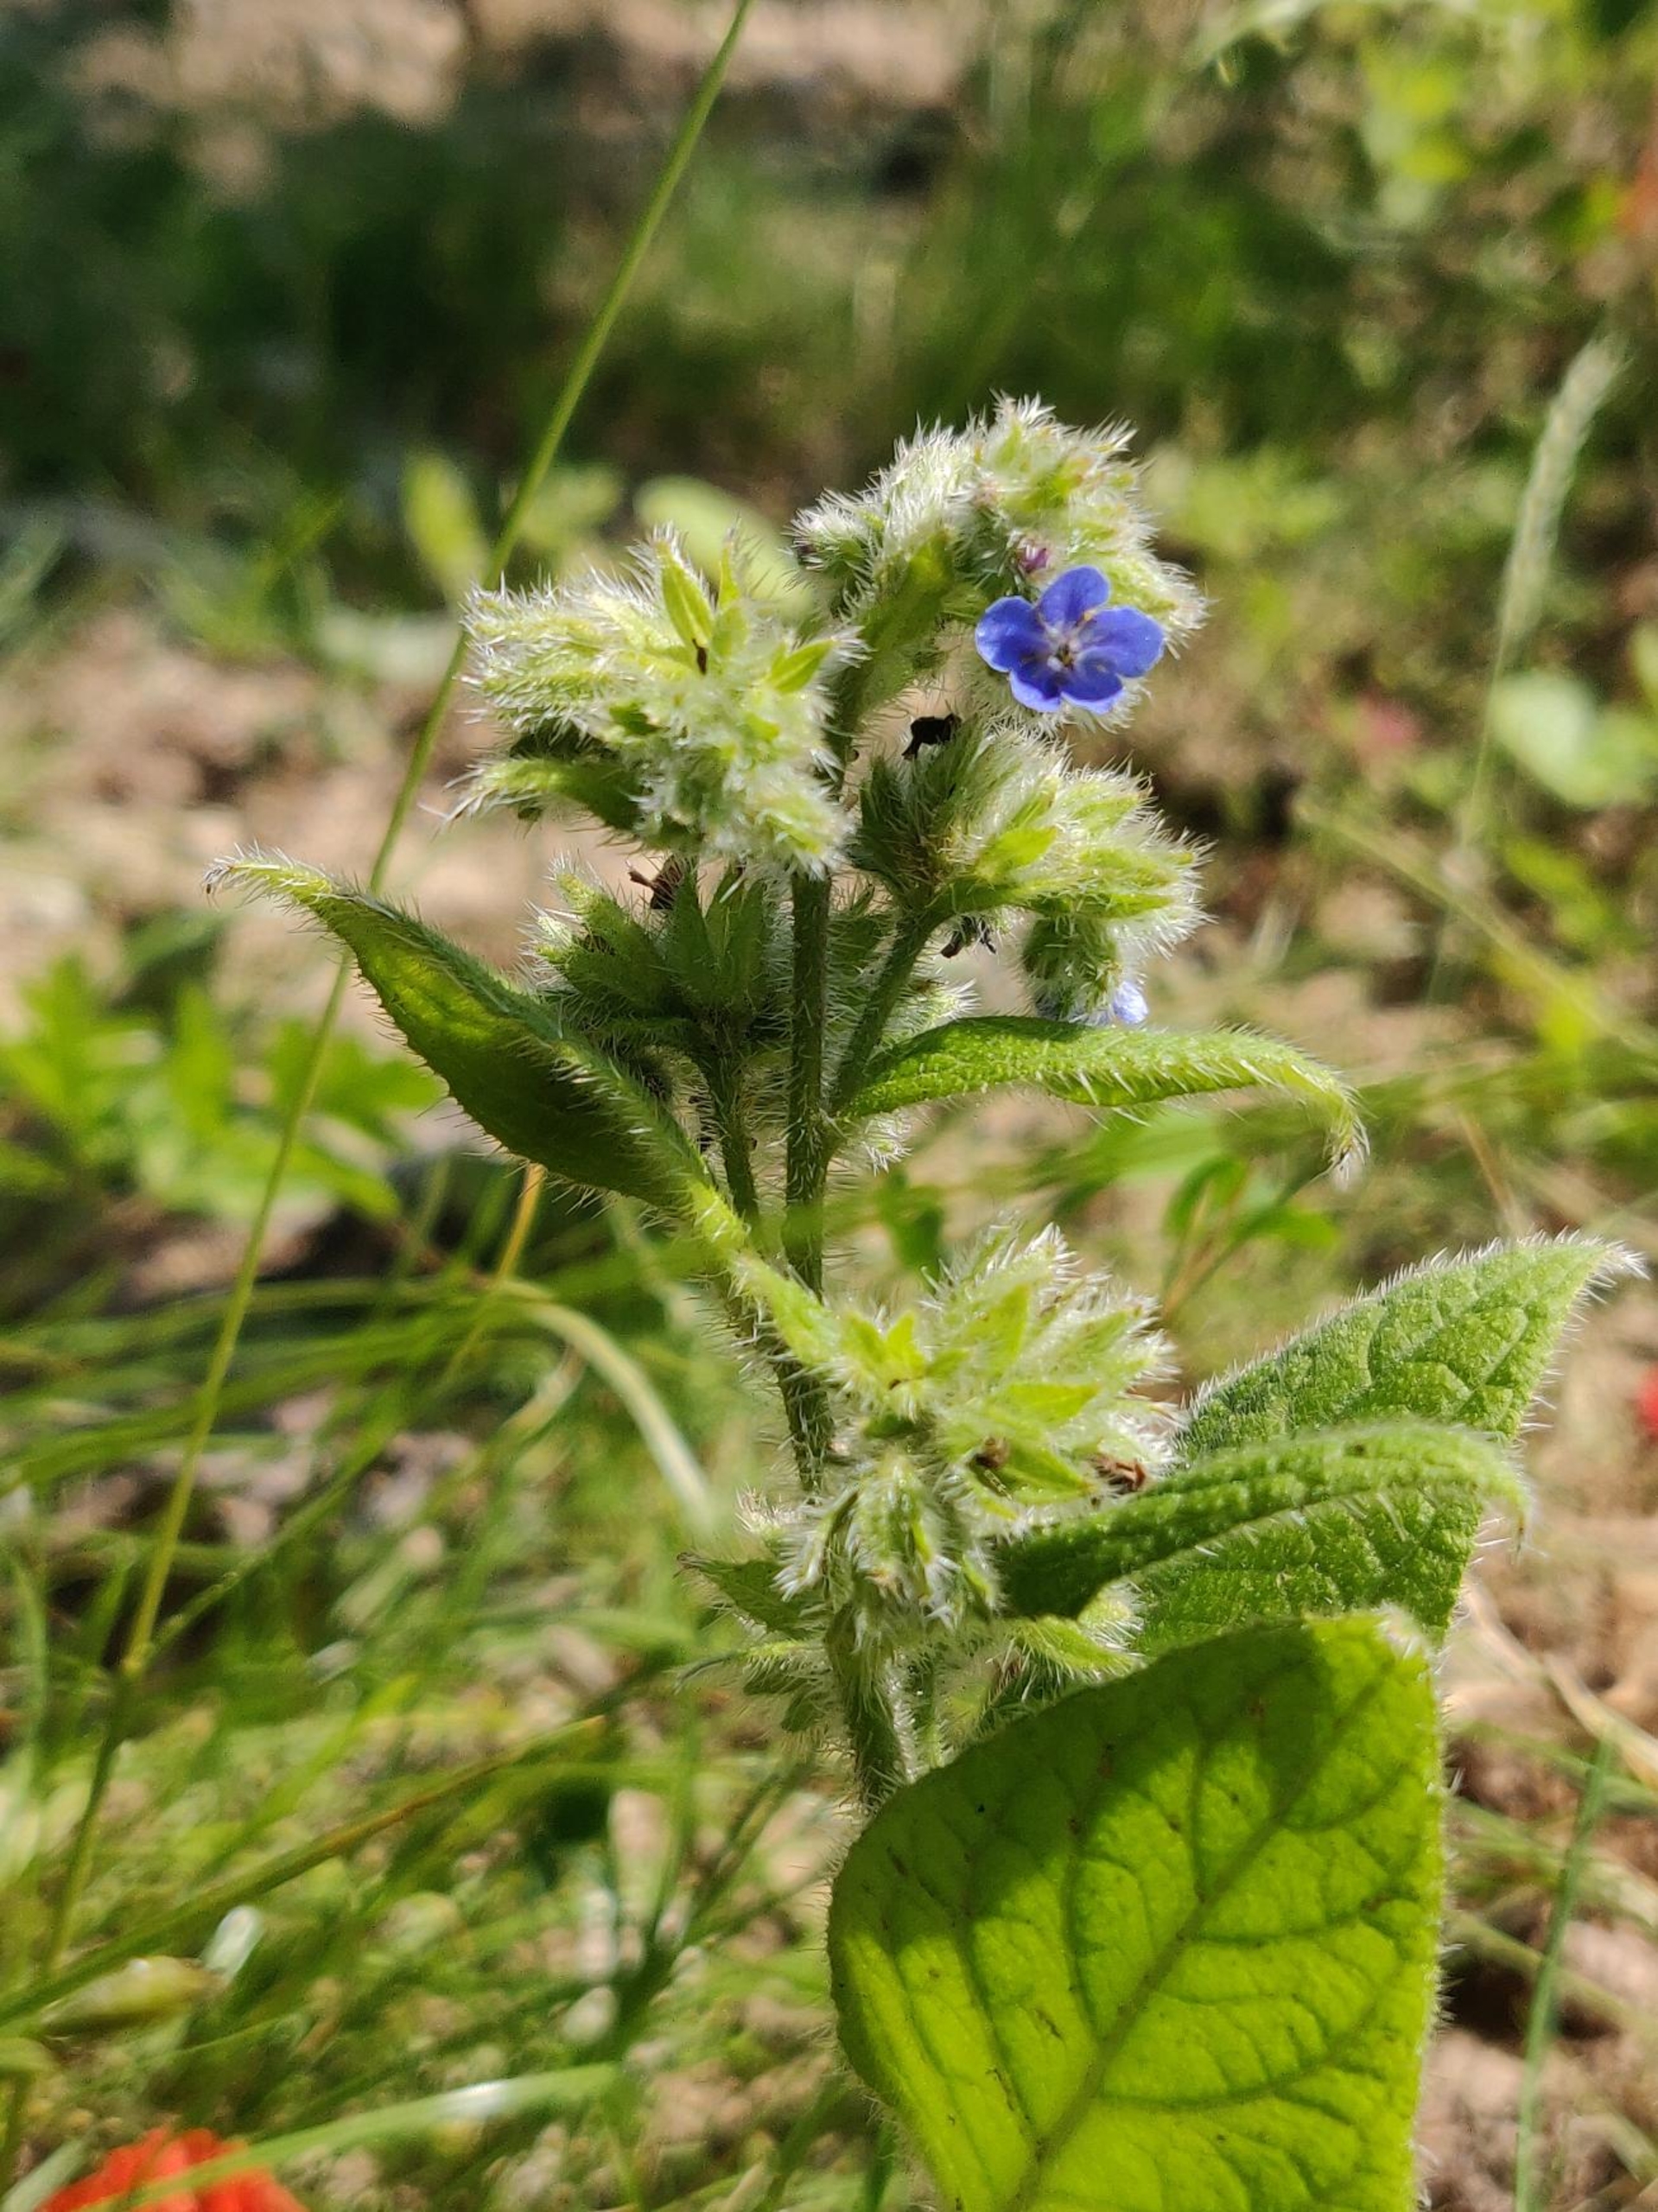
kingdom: Plantae
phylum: Tracheophyta
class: Magnoliopsida
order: Boraginales
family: Boraginaceae
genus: Pentaglottis
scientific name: Pentaglottis sempervirens
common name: Femtunge
